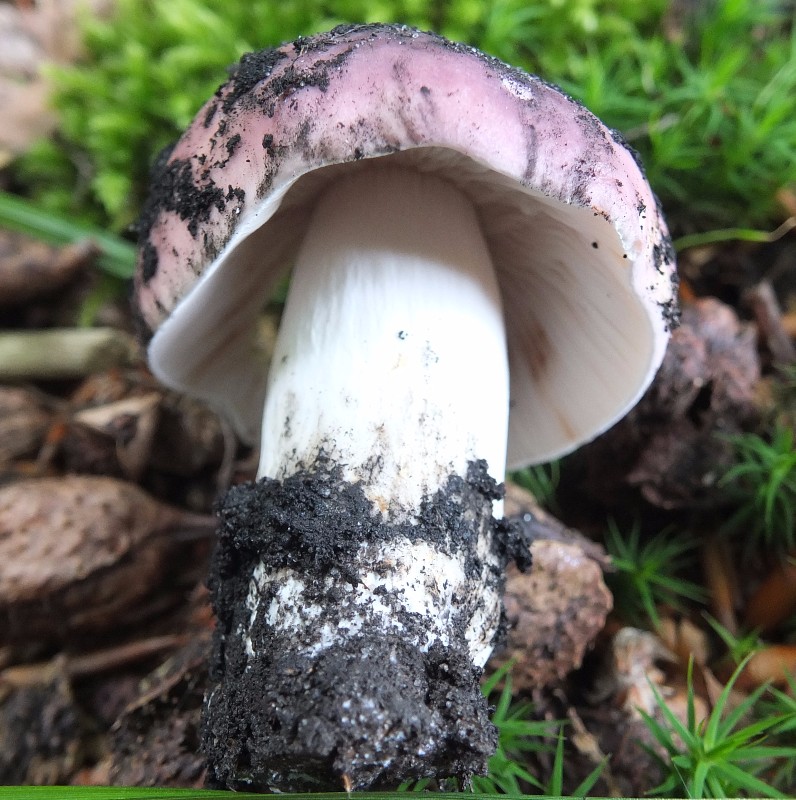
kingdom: Fungi
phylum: Basidiomycota
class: Agaricomycetes
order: Russulales
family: Russulaceae
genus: Russula
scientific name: Russula cyanoxantha
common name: broget skørhat
